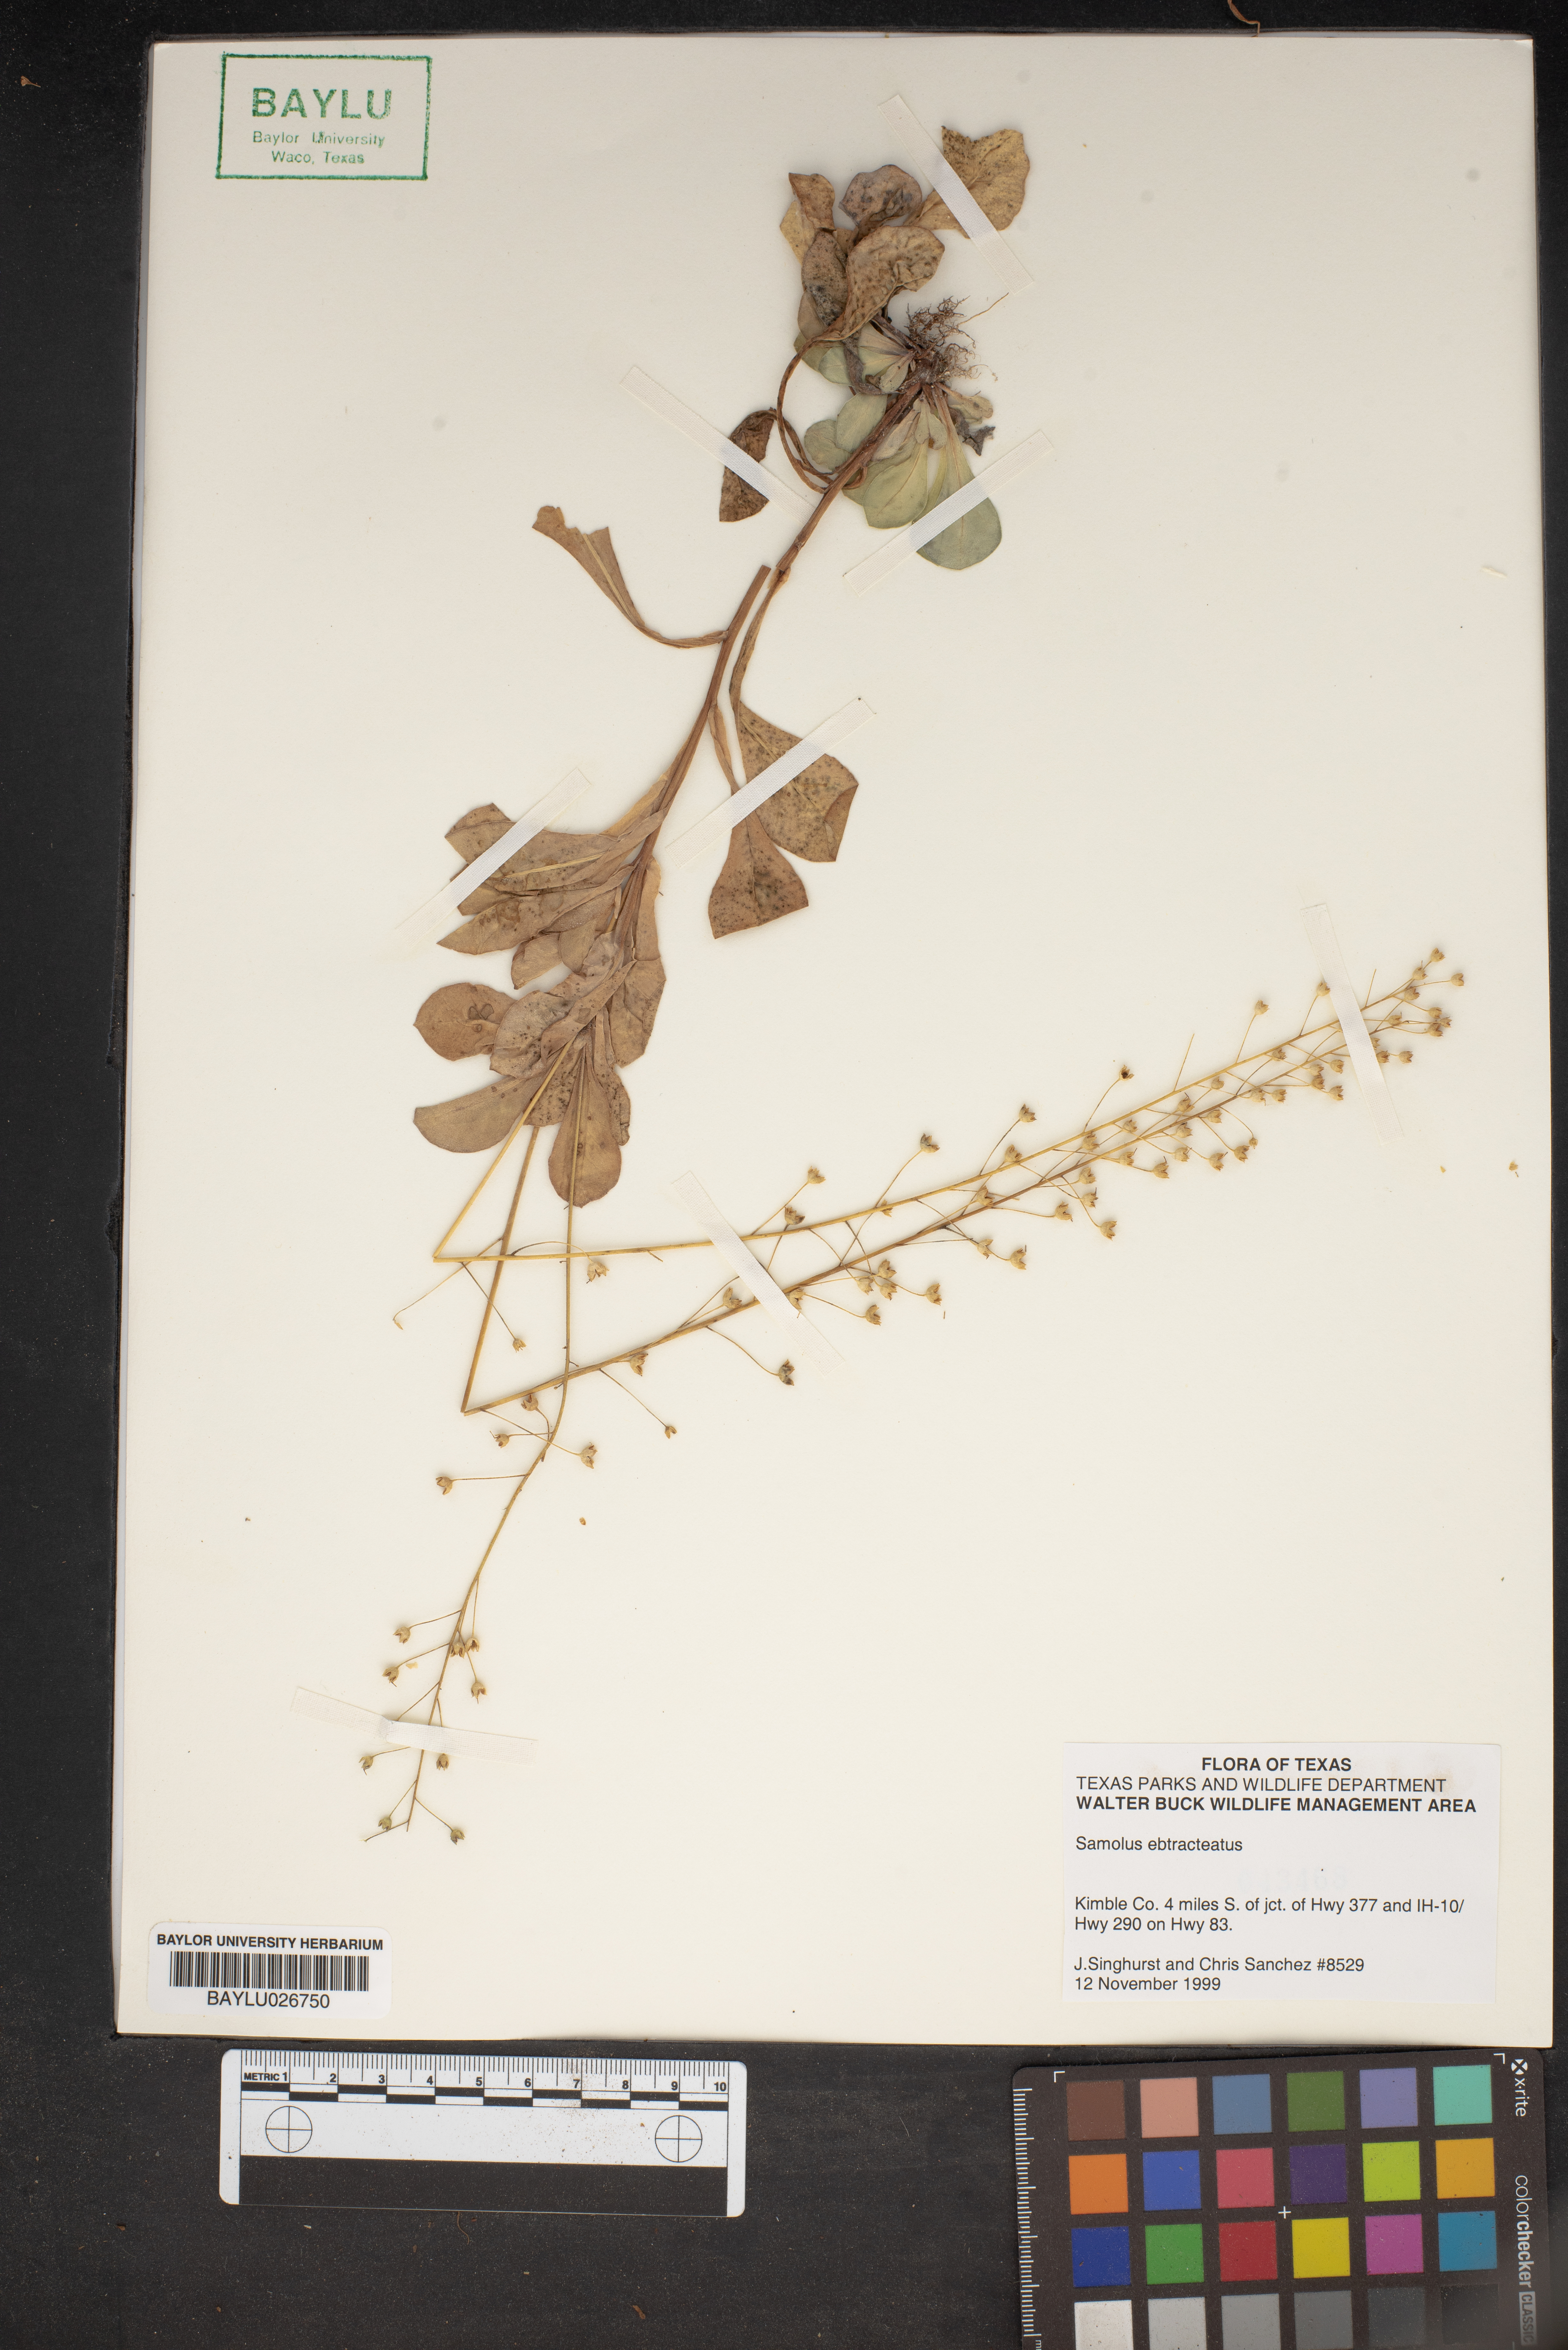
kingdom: Plantae
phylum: Tracheophyta
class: Magnoliopsida
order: Ericales
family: Primulaceae
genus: Samolus
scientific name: Samolus ebracteatus
